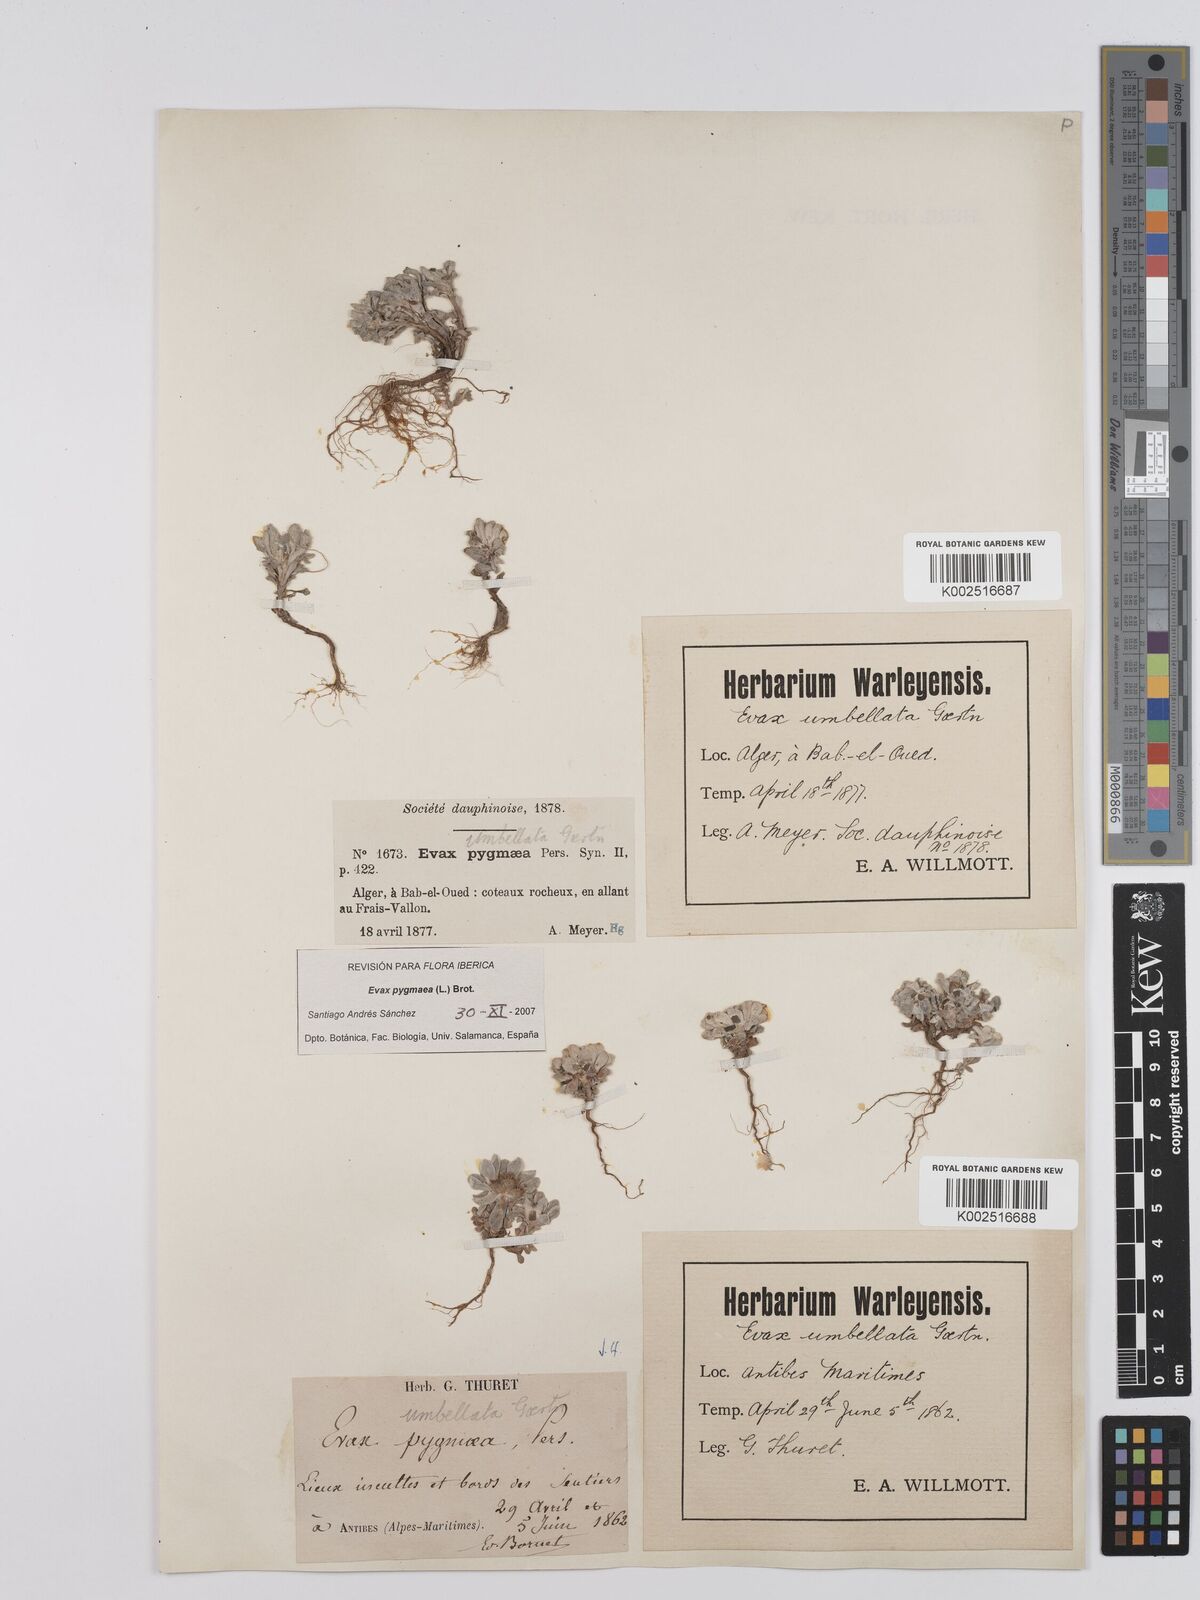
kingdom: Plantae
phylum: Tracheophyta
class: Magnoliopsida
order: Asterales
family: Asteraceae
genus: Filago
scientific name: Filago pygmaea
